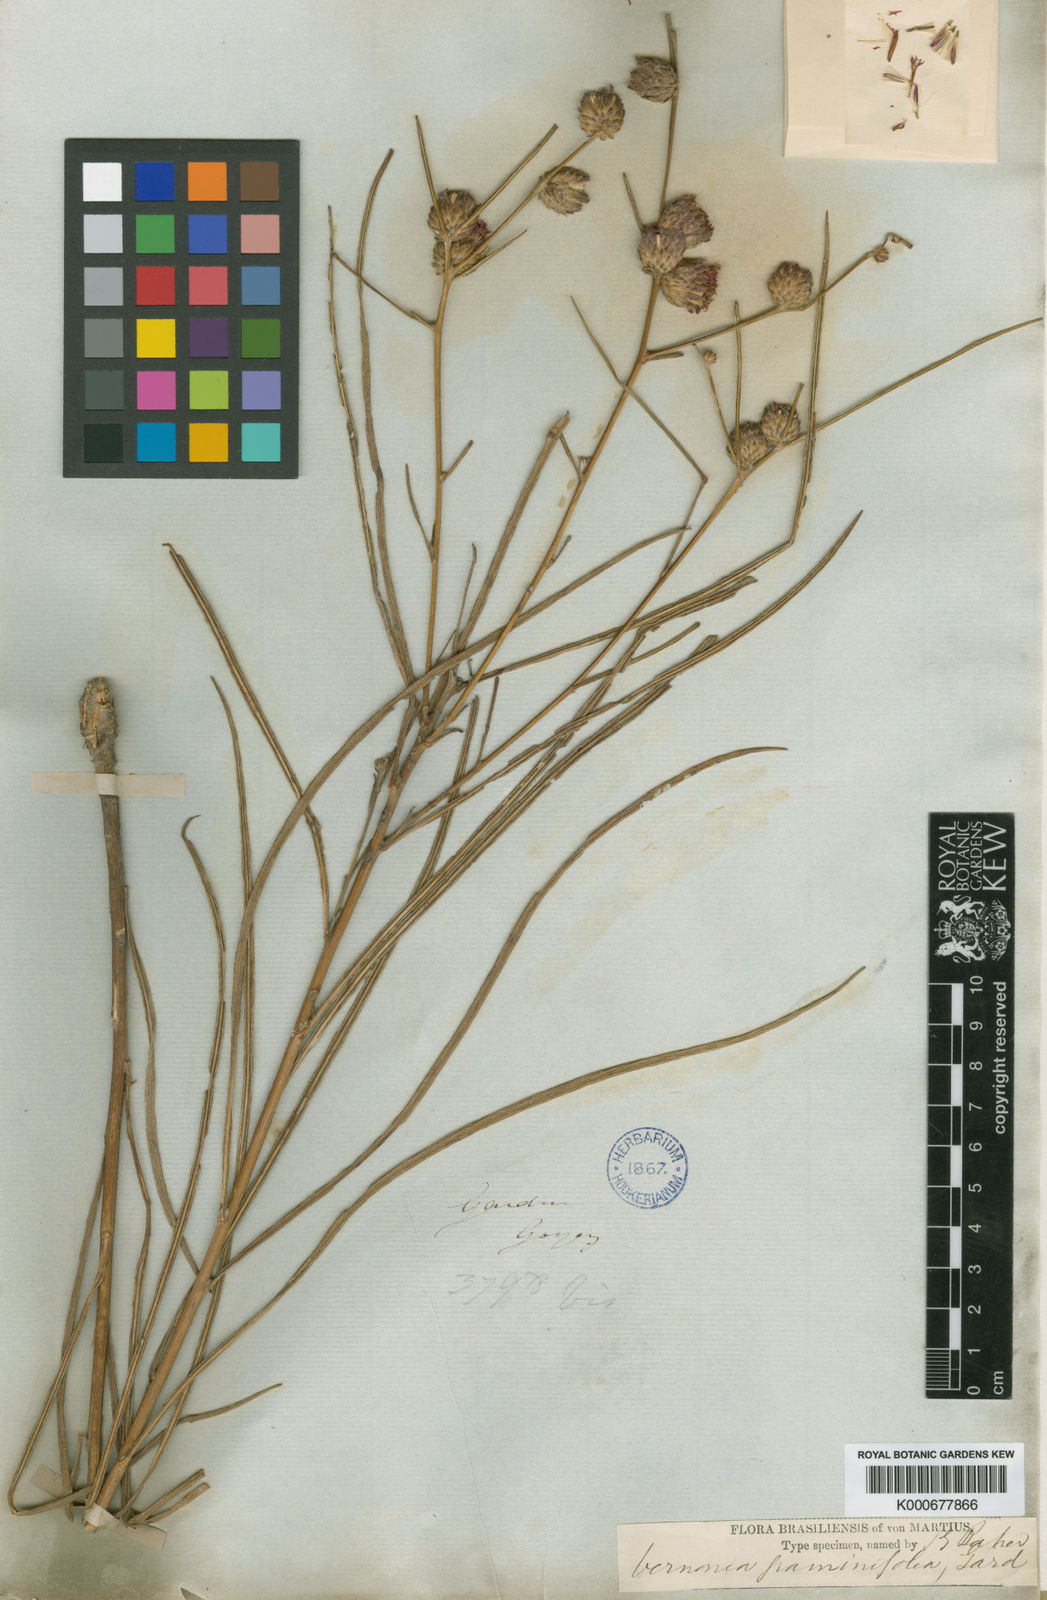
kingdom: Plantae
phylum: Tracheophyta
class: Magnoliopsida
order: Asterales
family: Asteraceae
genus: Lessingianthus
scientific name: Lessingianthus graminifolius
